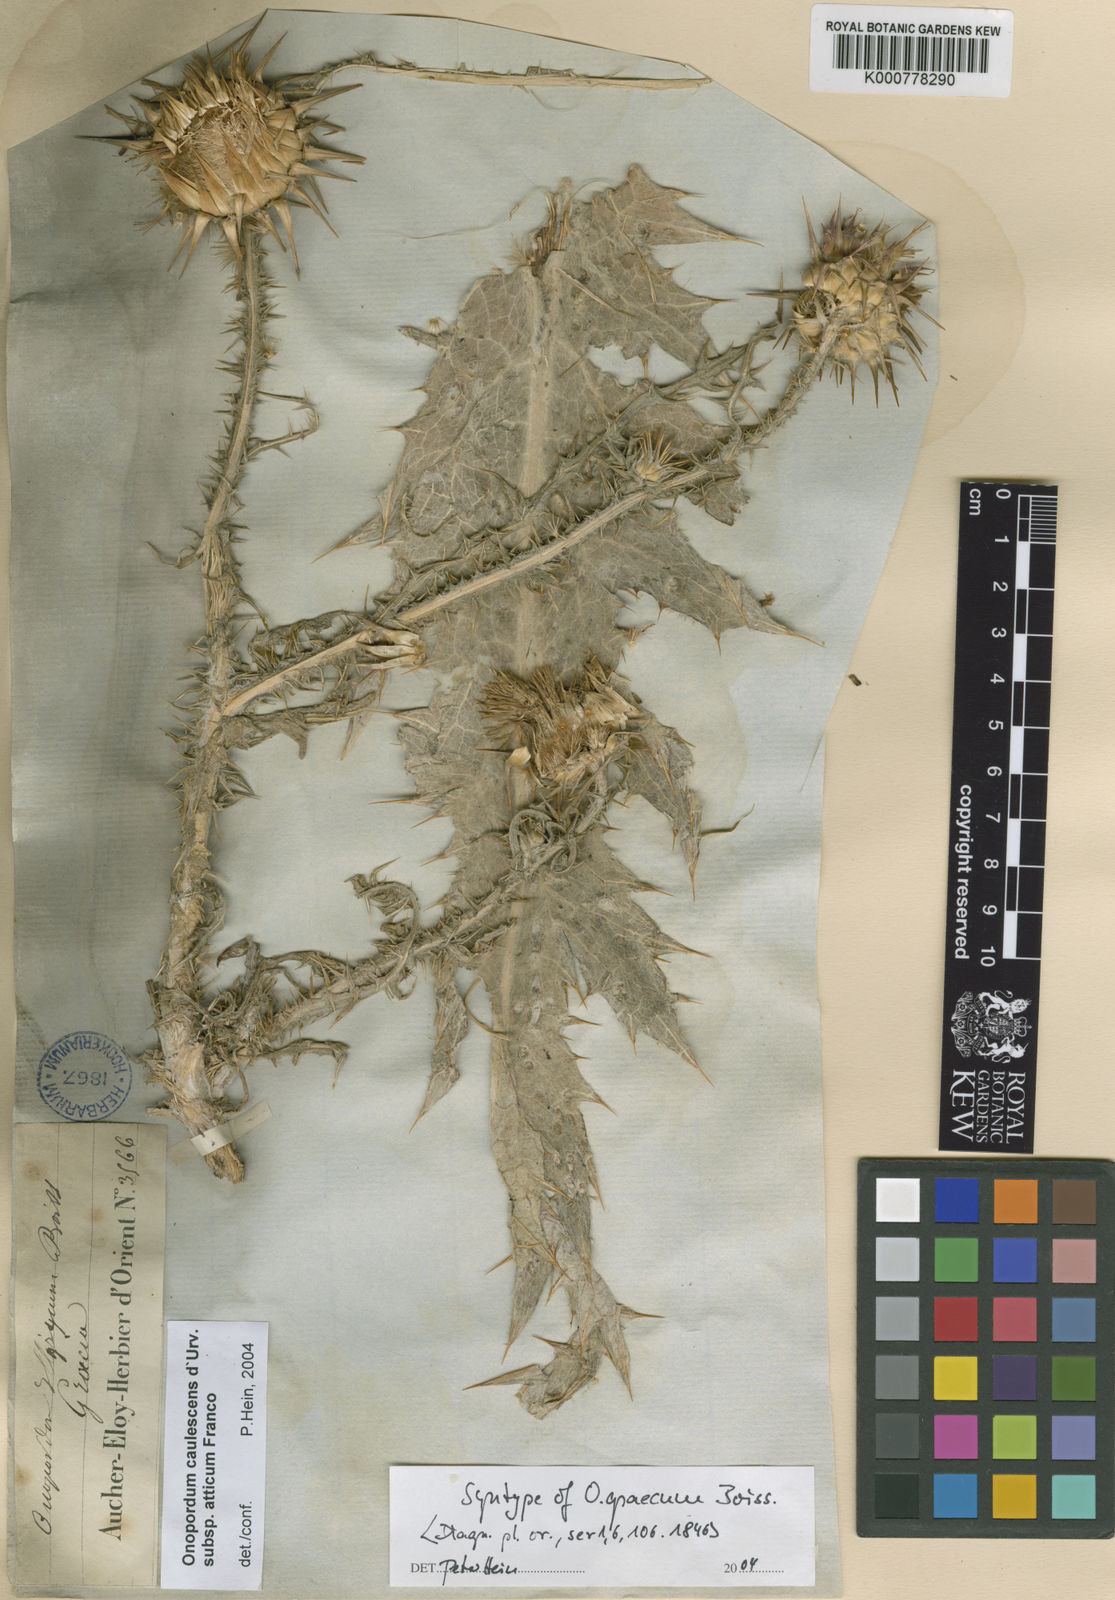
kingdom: Plantae
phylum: Tracheophyta
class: Magnoliopsida
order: Asterales
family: Asteraceae
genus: Onopordum
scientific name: Onopordum caulescens
